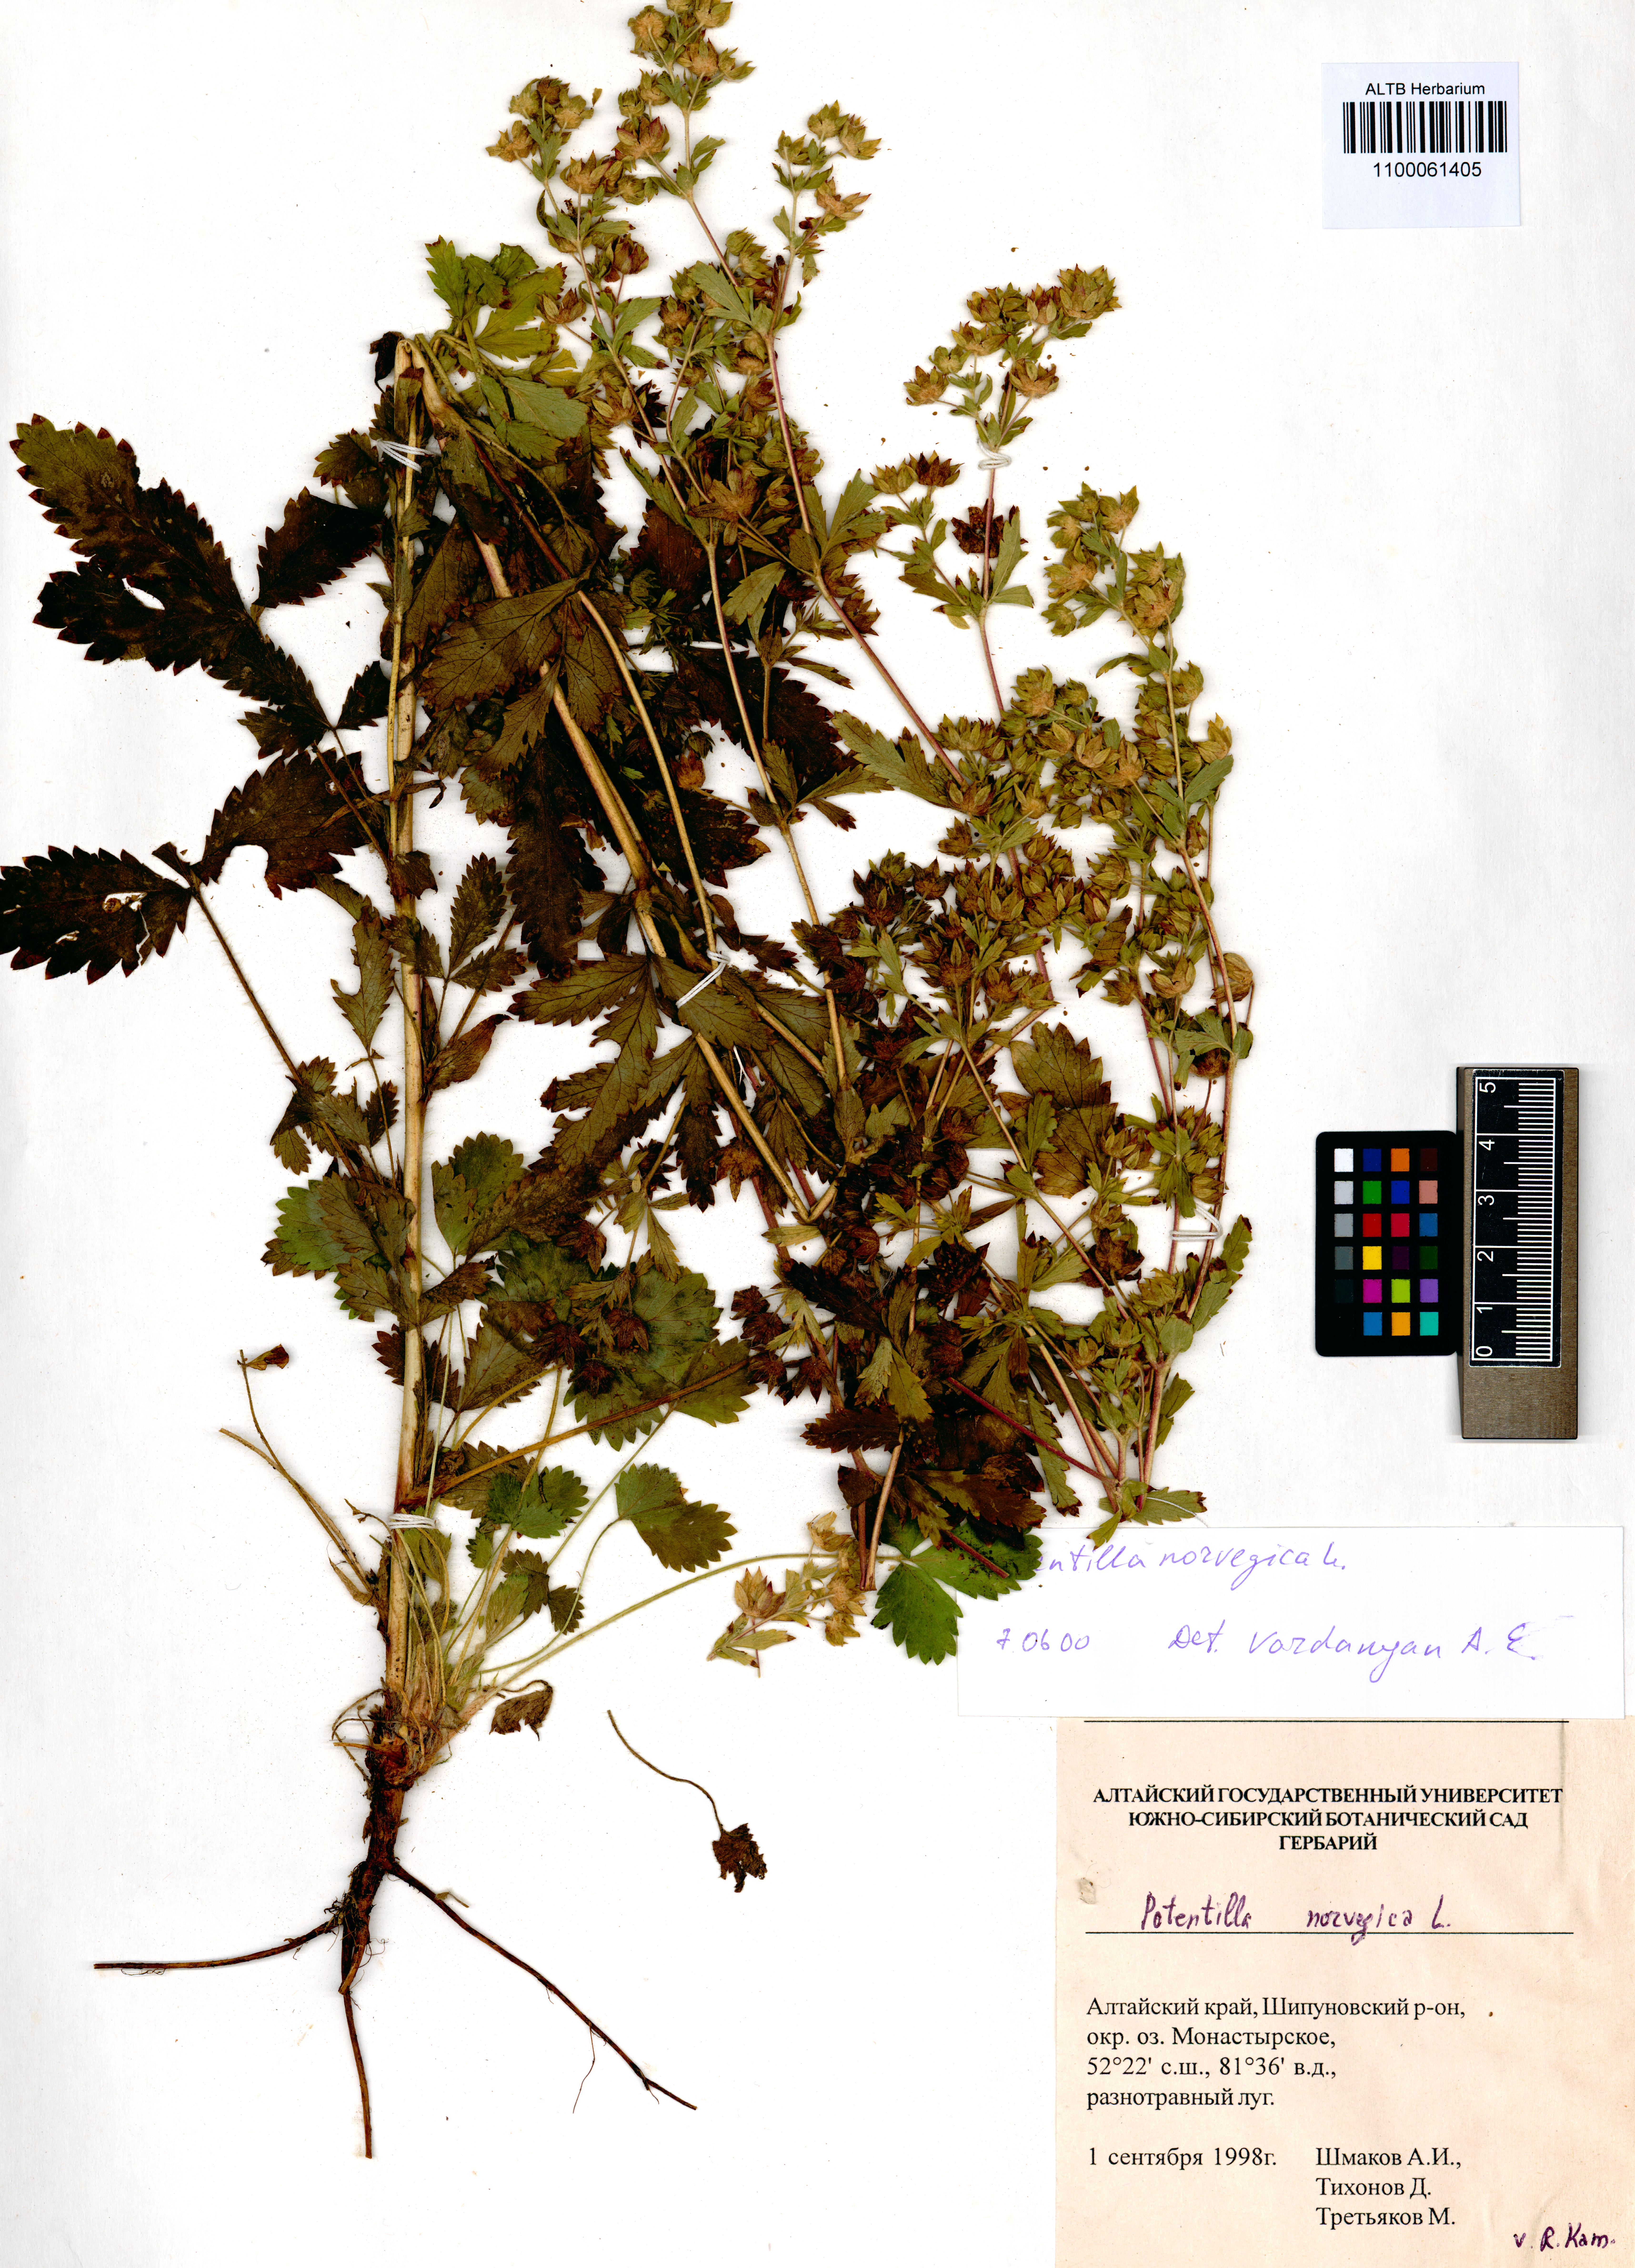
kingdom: Plantae
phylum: Tracheophyta
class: Magnoliopsida
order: Rosales
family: Rosaceae
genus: Potentilla
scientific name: Potentilla norvegica
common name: Ternate-leaved cinquefoil
